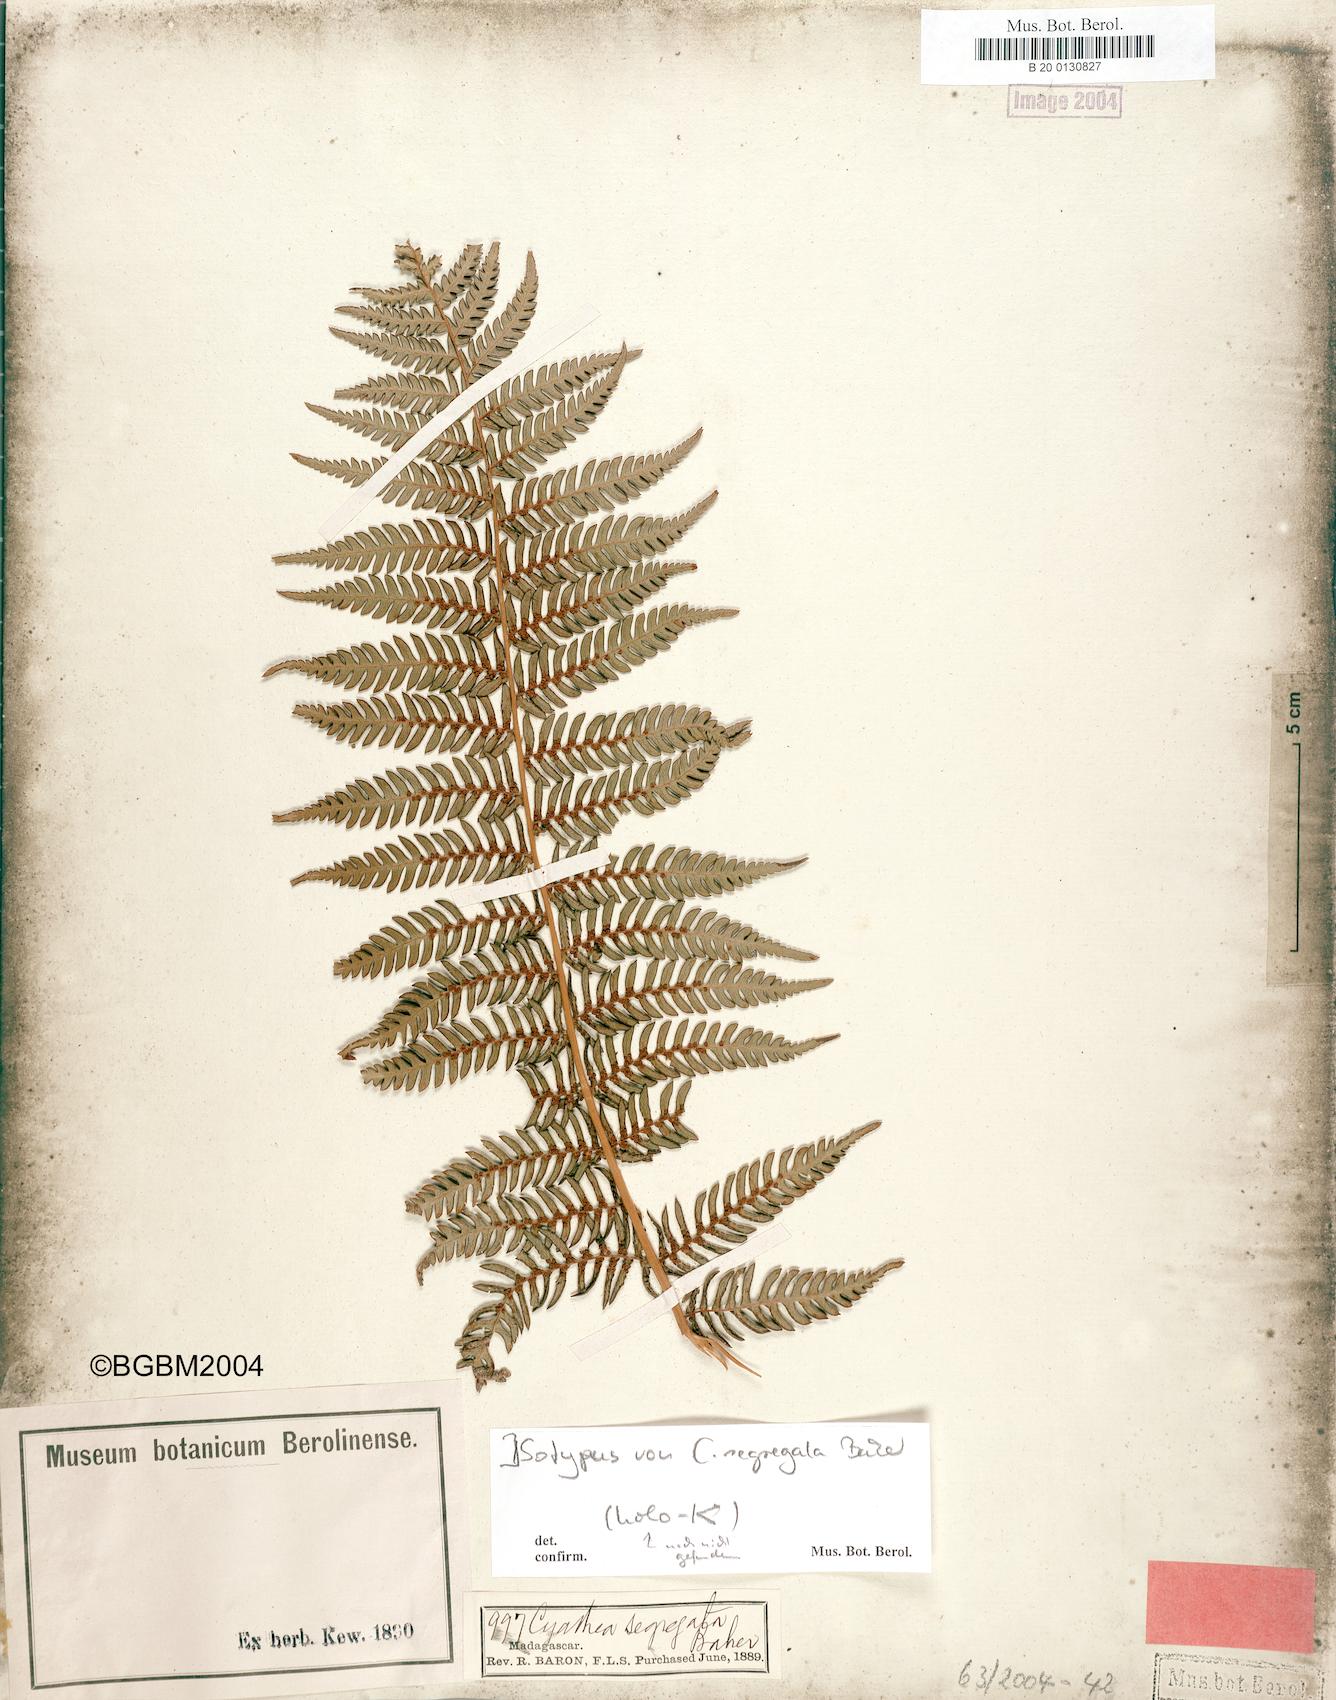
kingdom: Plantae
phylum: Tracheophyta
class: Polypodiopsida
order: Cyatheales
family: Cyatheaceae
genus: Alsophila
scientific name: Alsophila dregei
